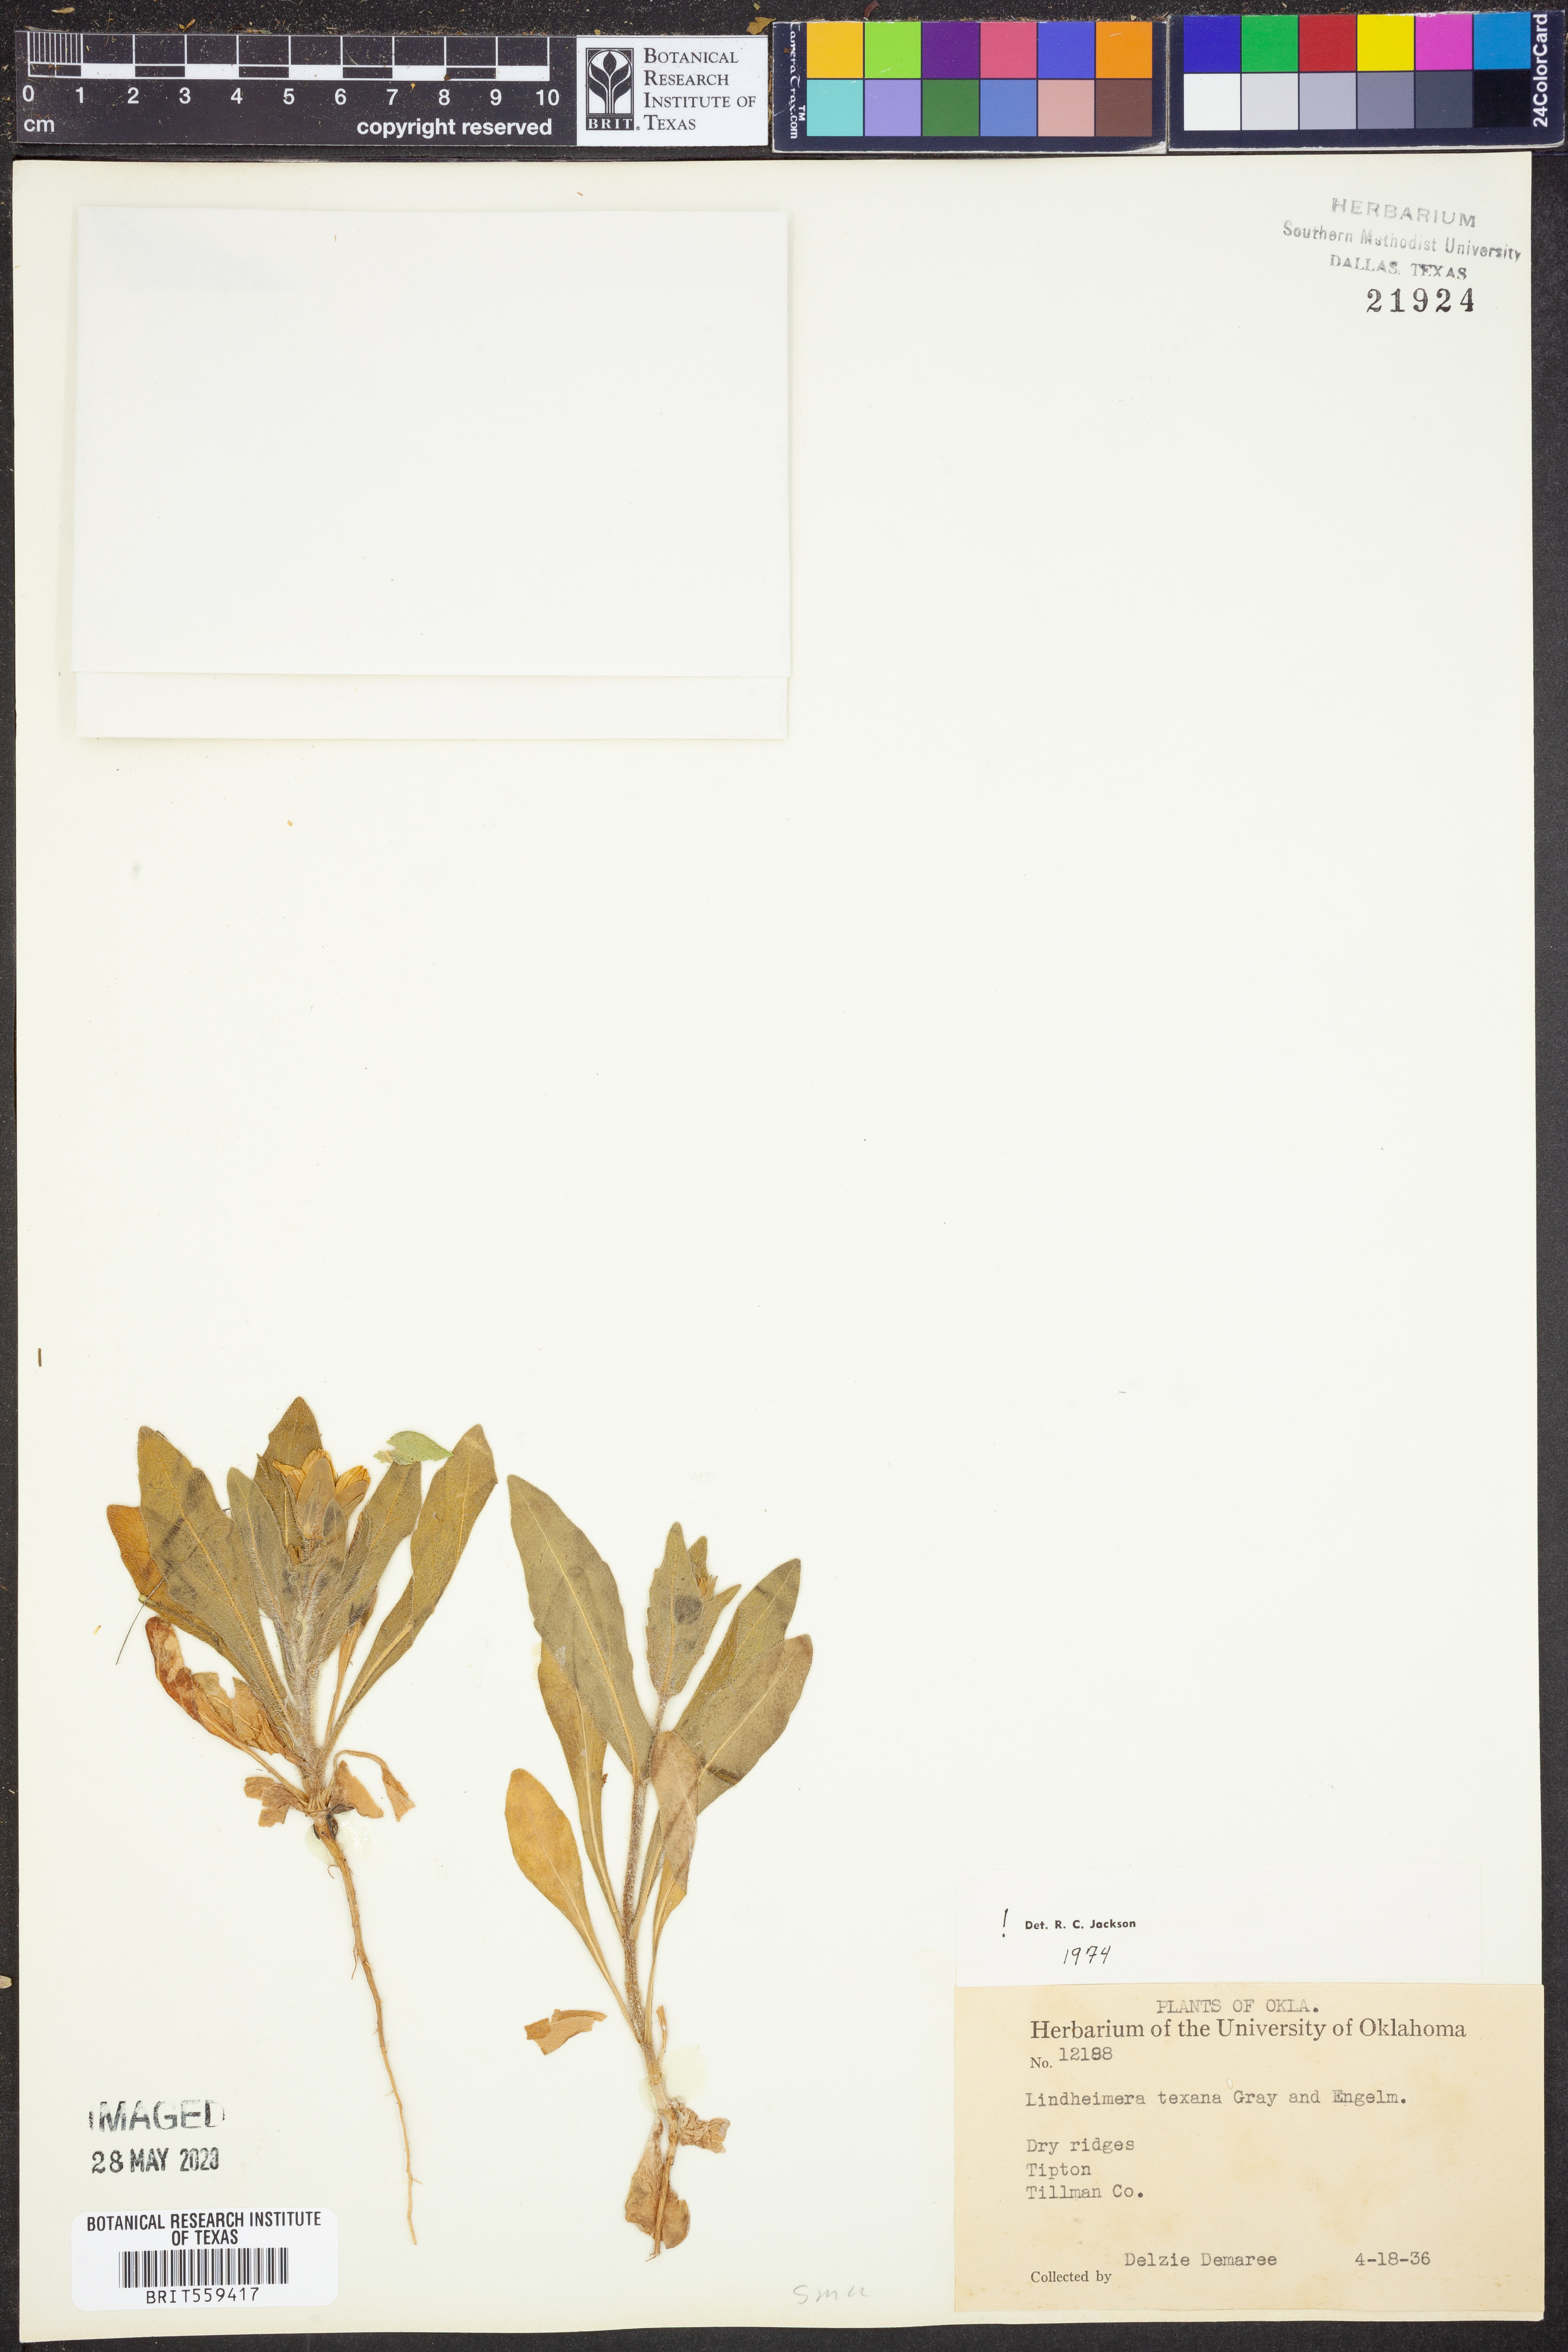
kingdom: Plantae
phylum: Tracheophyta
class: Magnoliopsida
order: Asterales
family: Asteraceae
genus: Lindheimera
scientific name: Lindheimera texana
